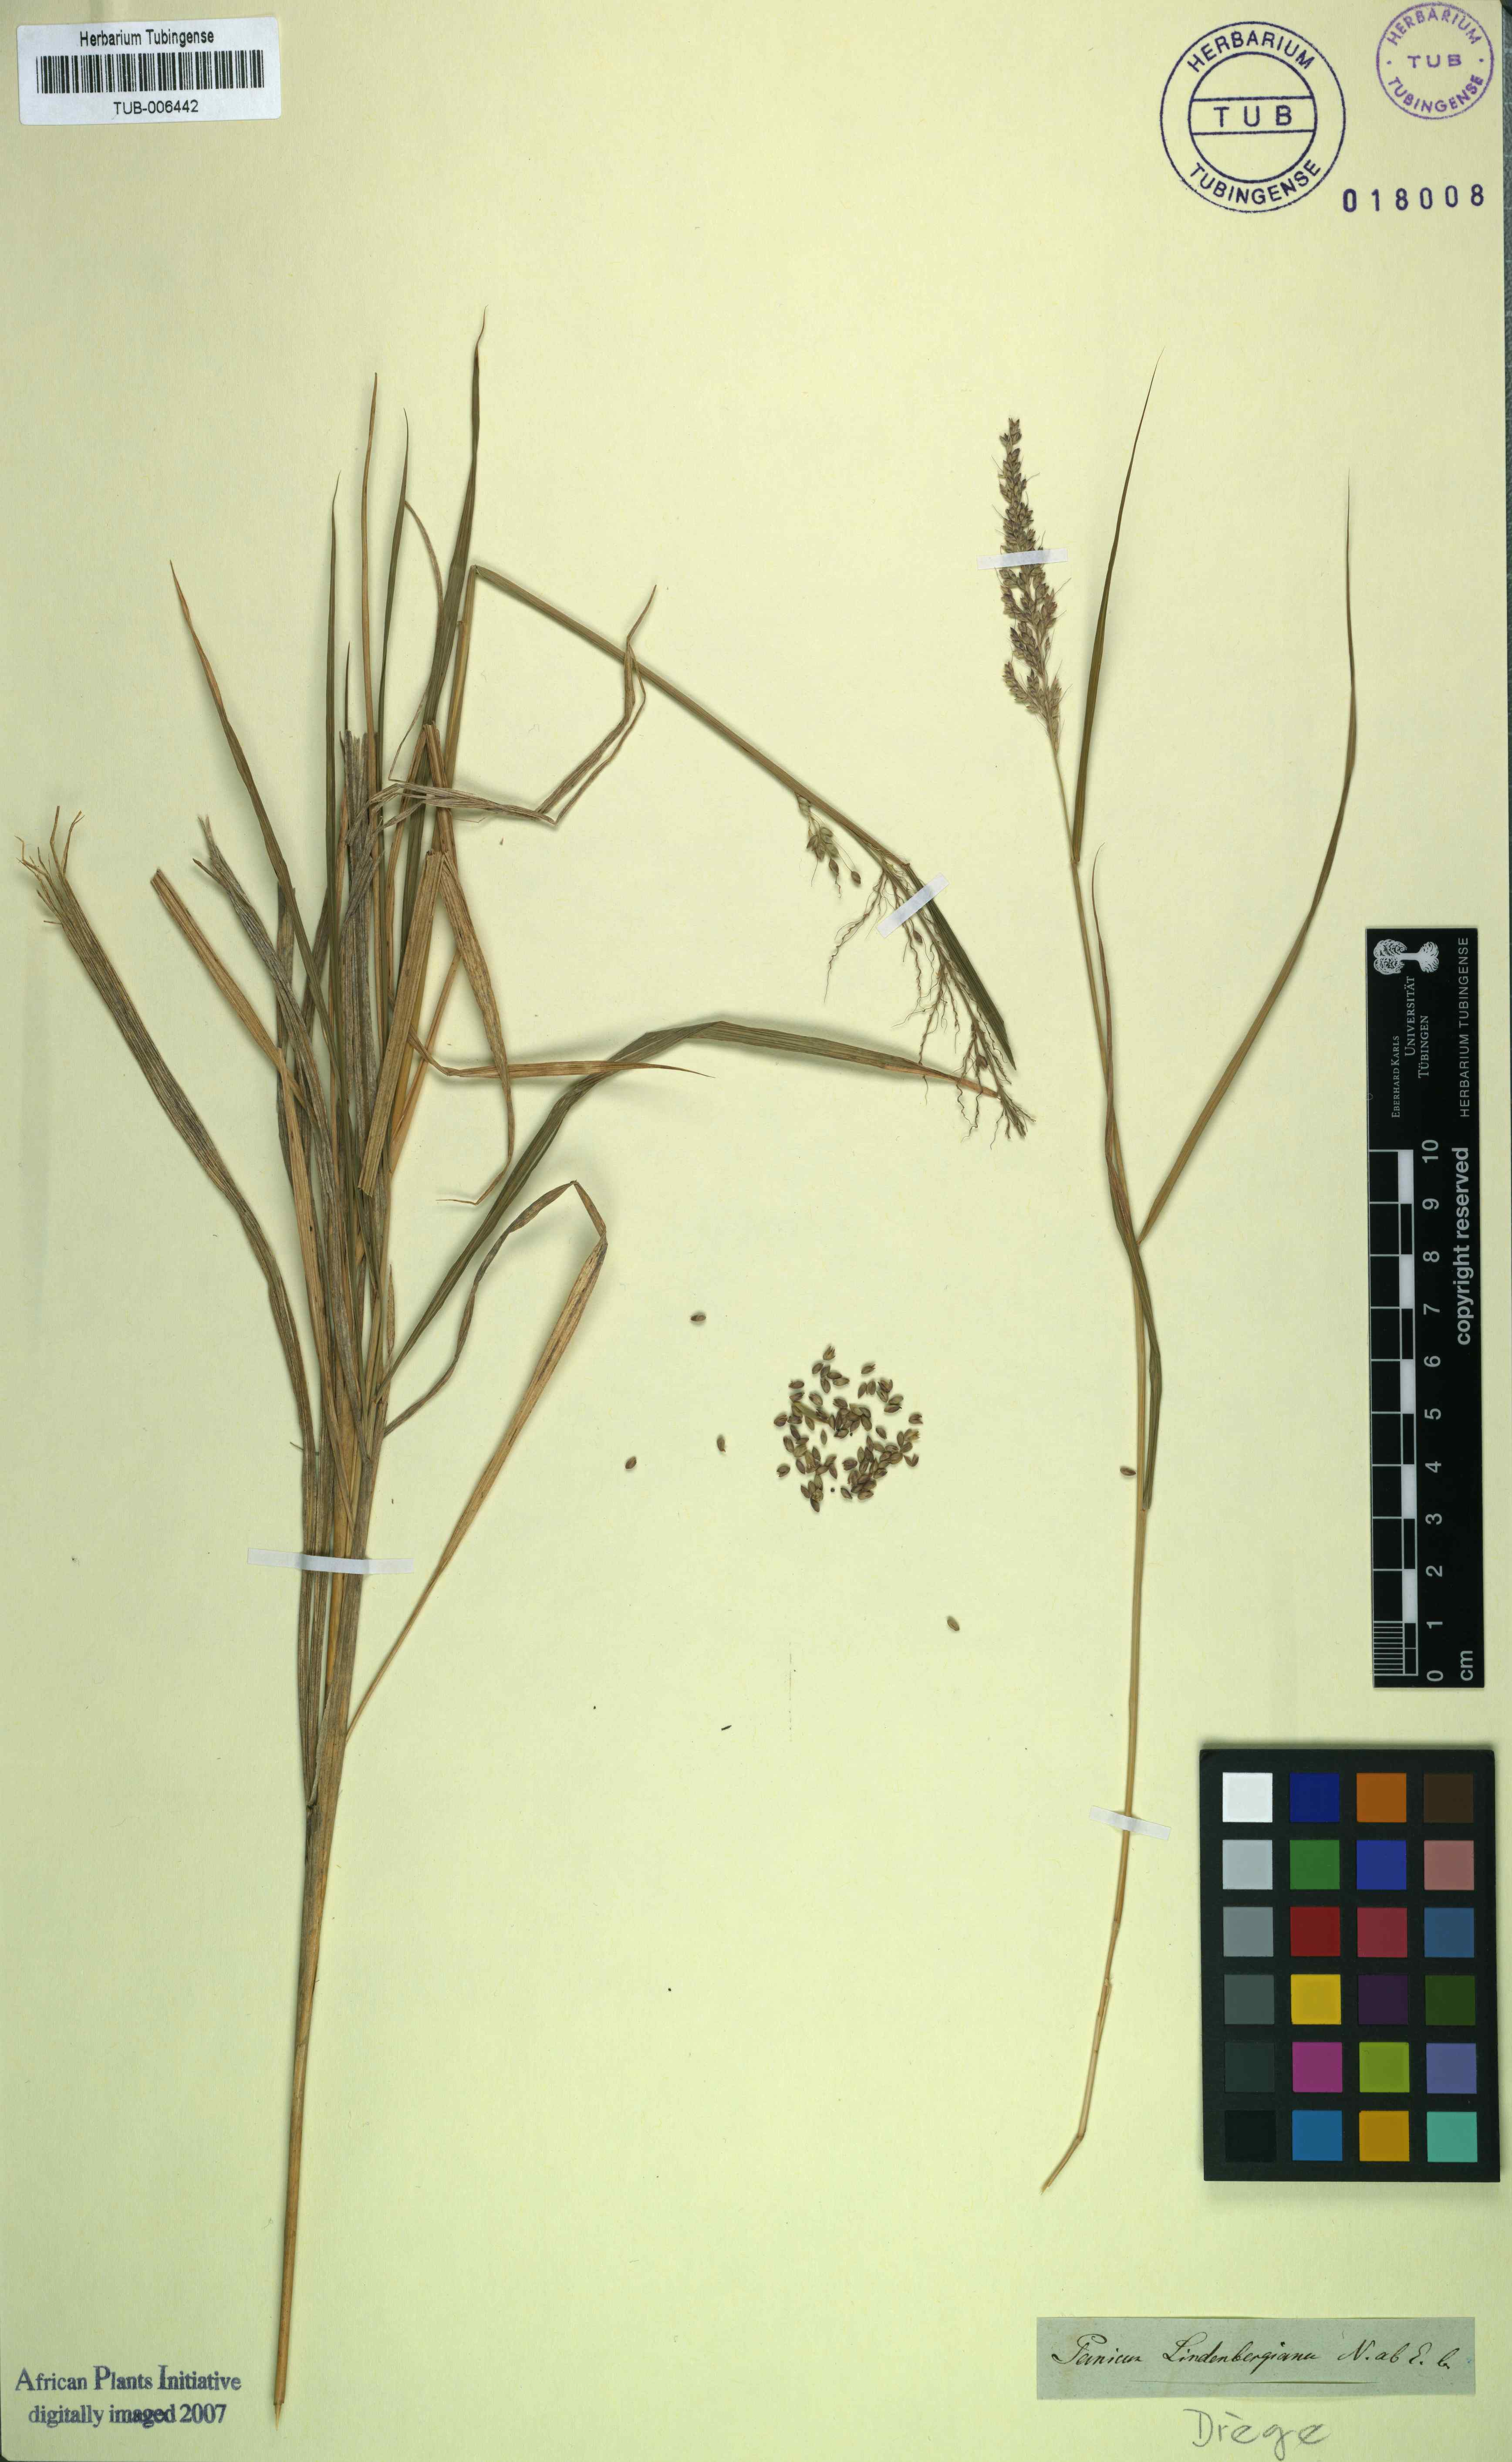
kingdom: Plantae
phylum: Tracheophyta
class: Liliopsida
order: Poales
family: Poaceae
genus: Setaria
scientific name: Setaria lindenbergiana
